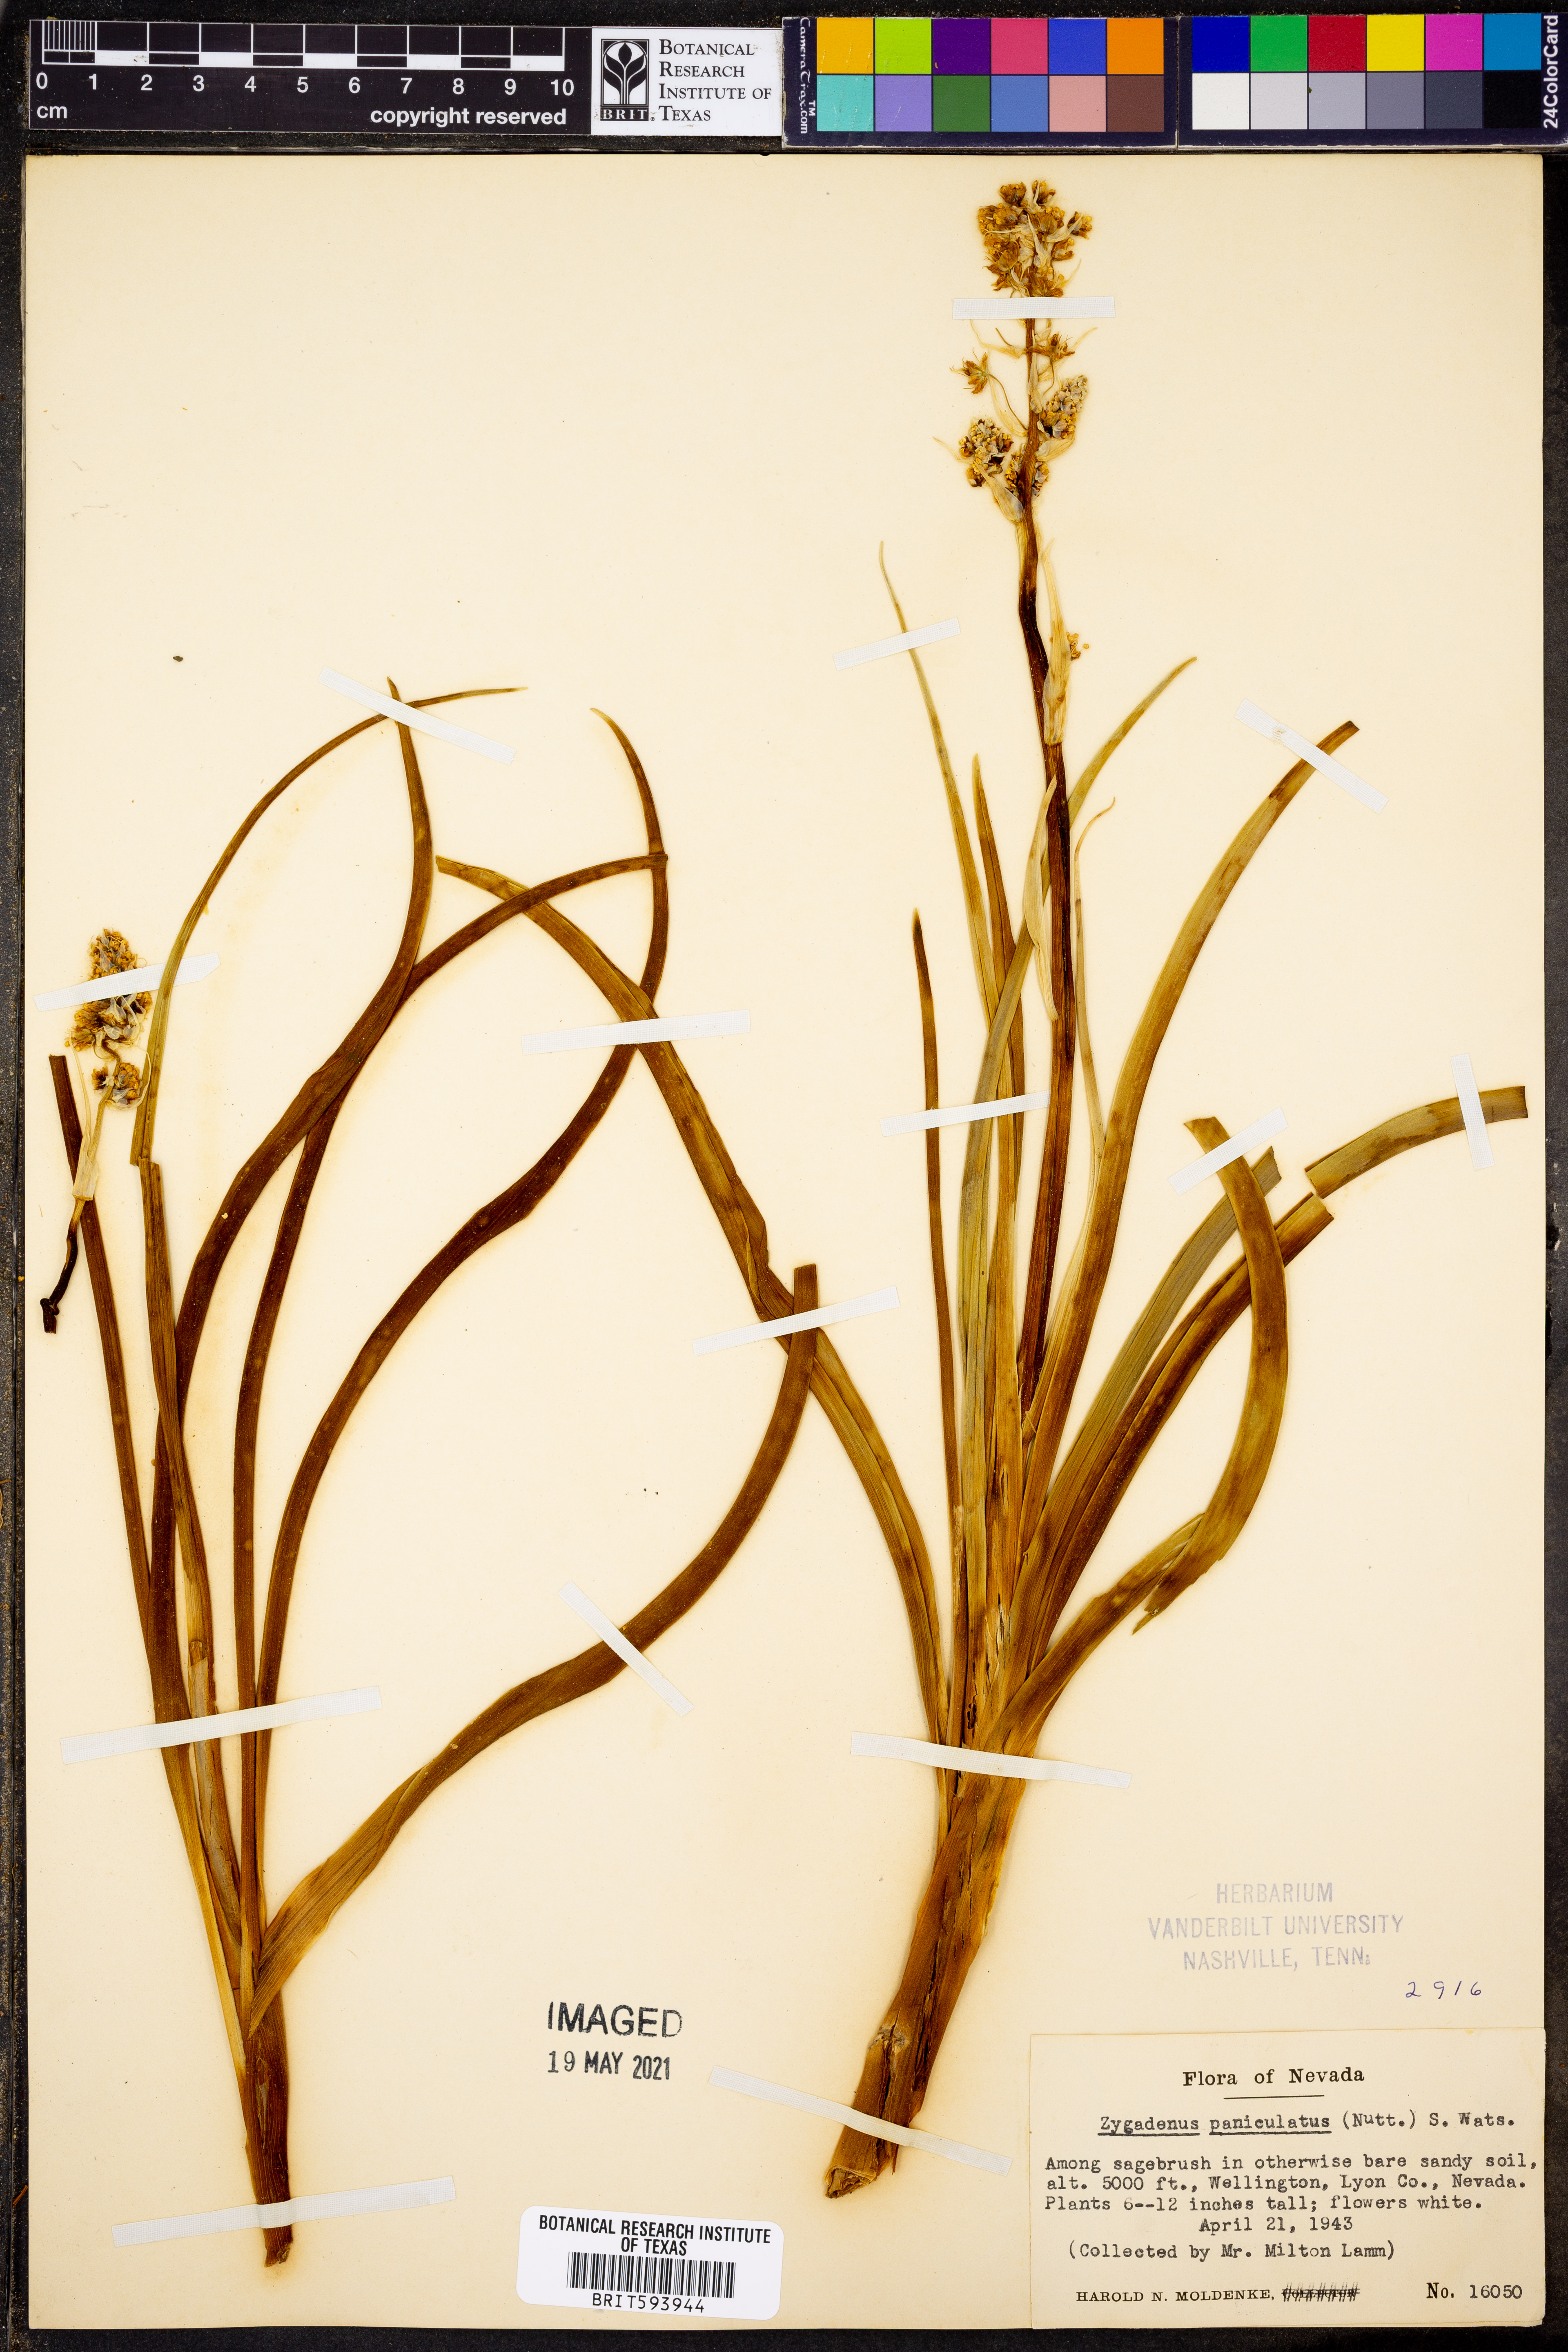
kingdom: Plantae
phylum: Tracheophyta
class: Liliopsida
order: Liliales
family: Melanthiaceae
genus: Toxicoscordion
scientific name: Toxicoscordion paniculatum
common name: Foothill death camas
